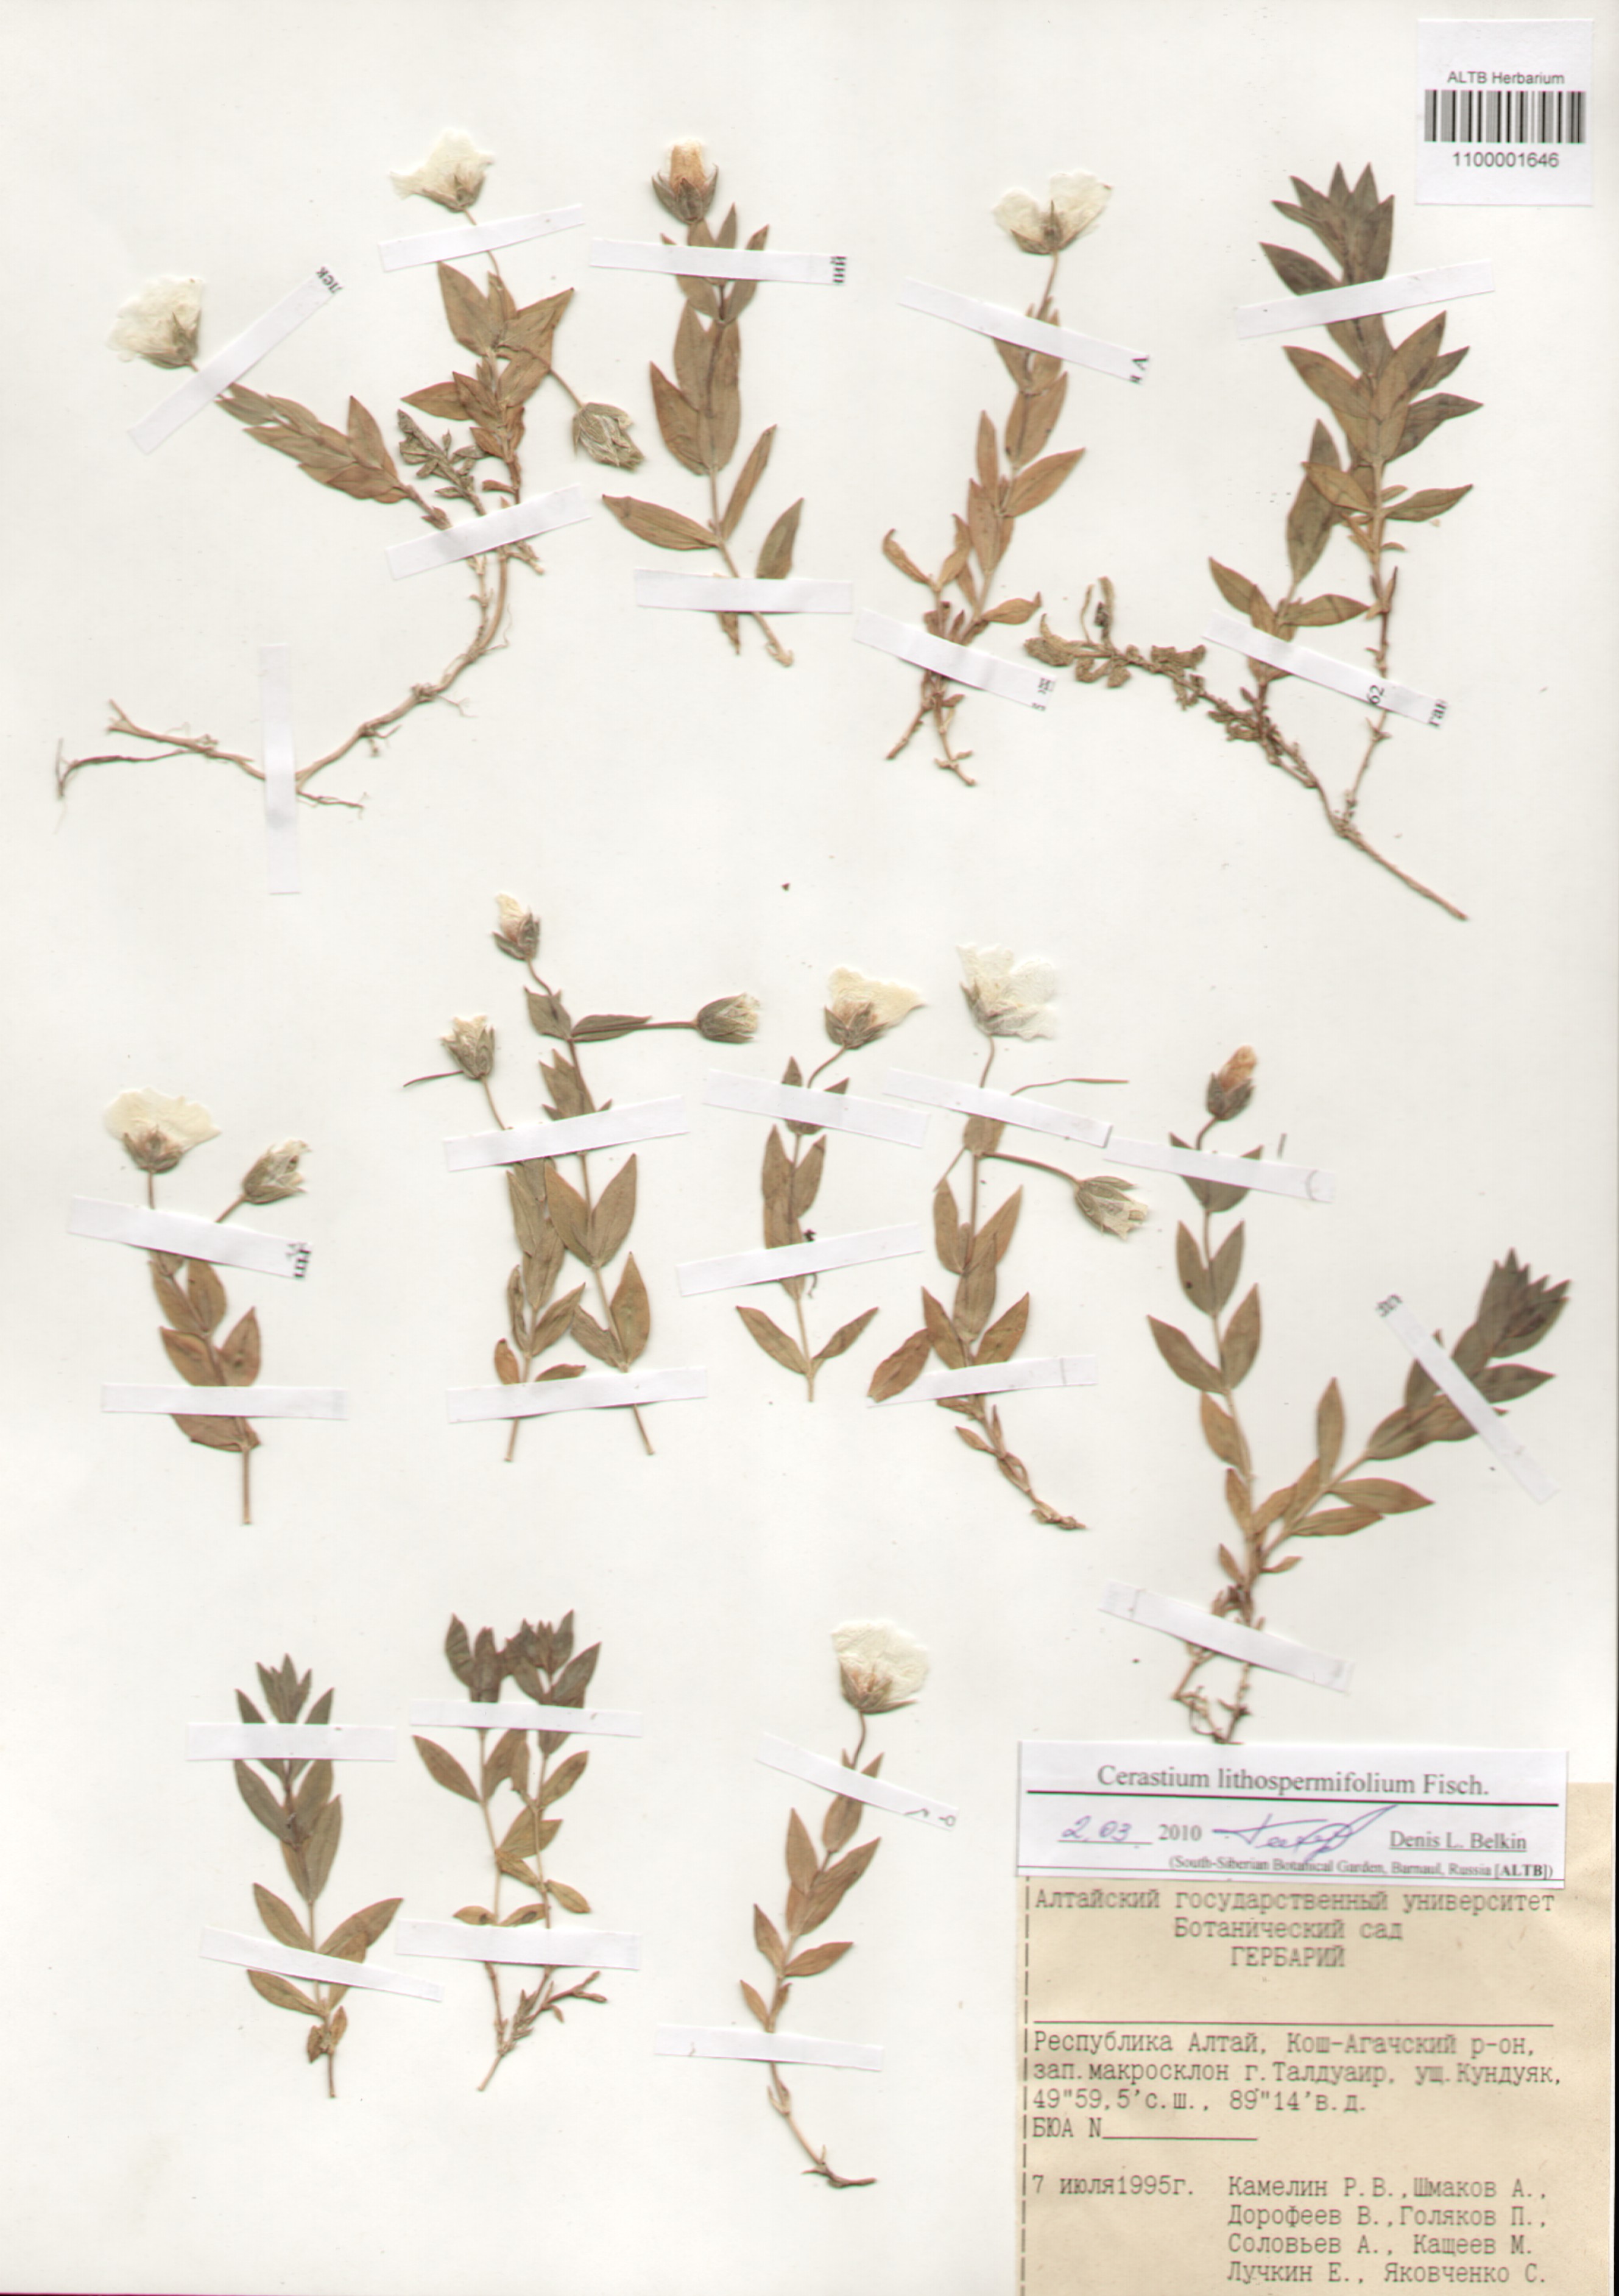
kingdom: Plantae
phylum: Tracheophyta
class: Magnoliopsida
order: Caryophyllales
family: Caryophyllaceae
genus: Cerastium
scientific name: Cerastium lithospermifolium
